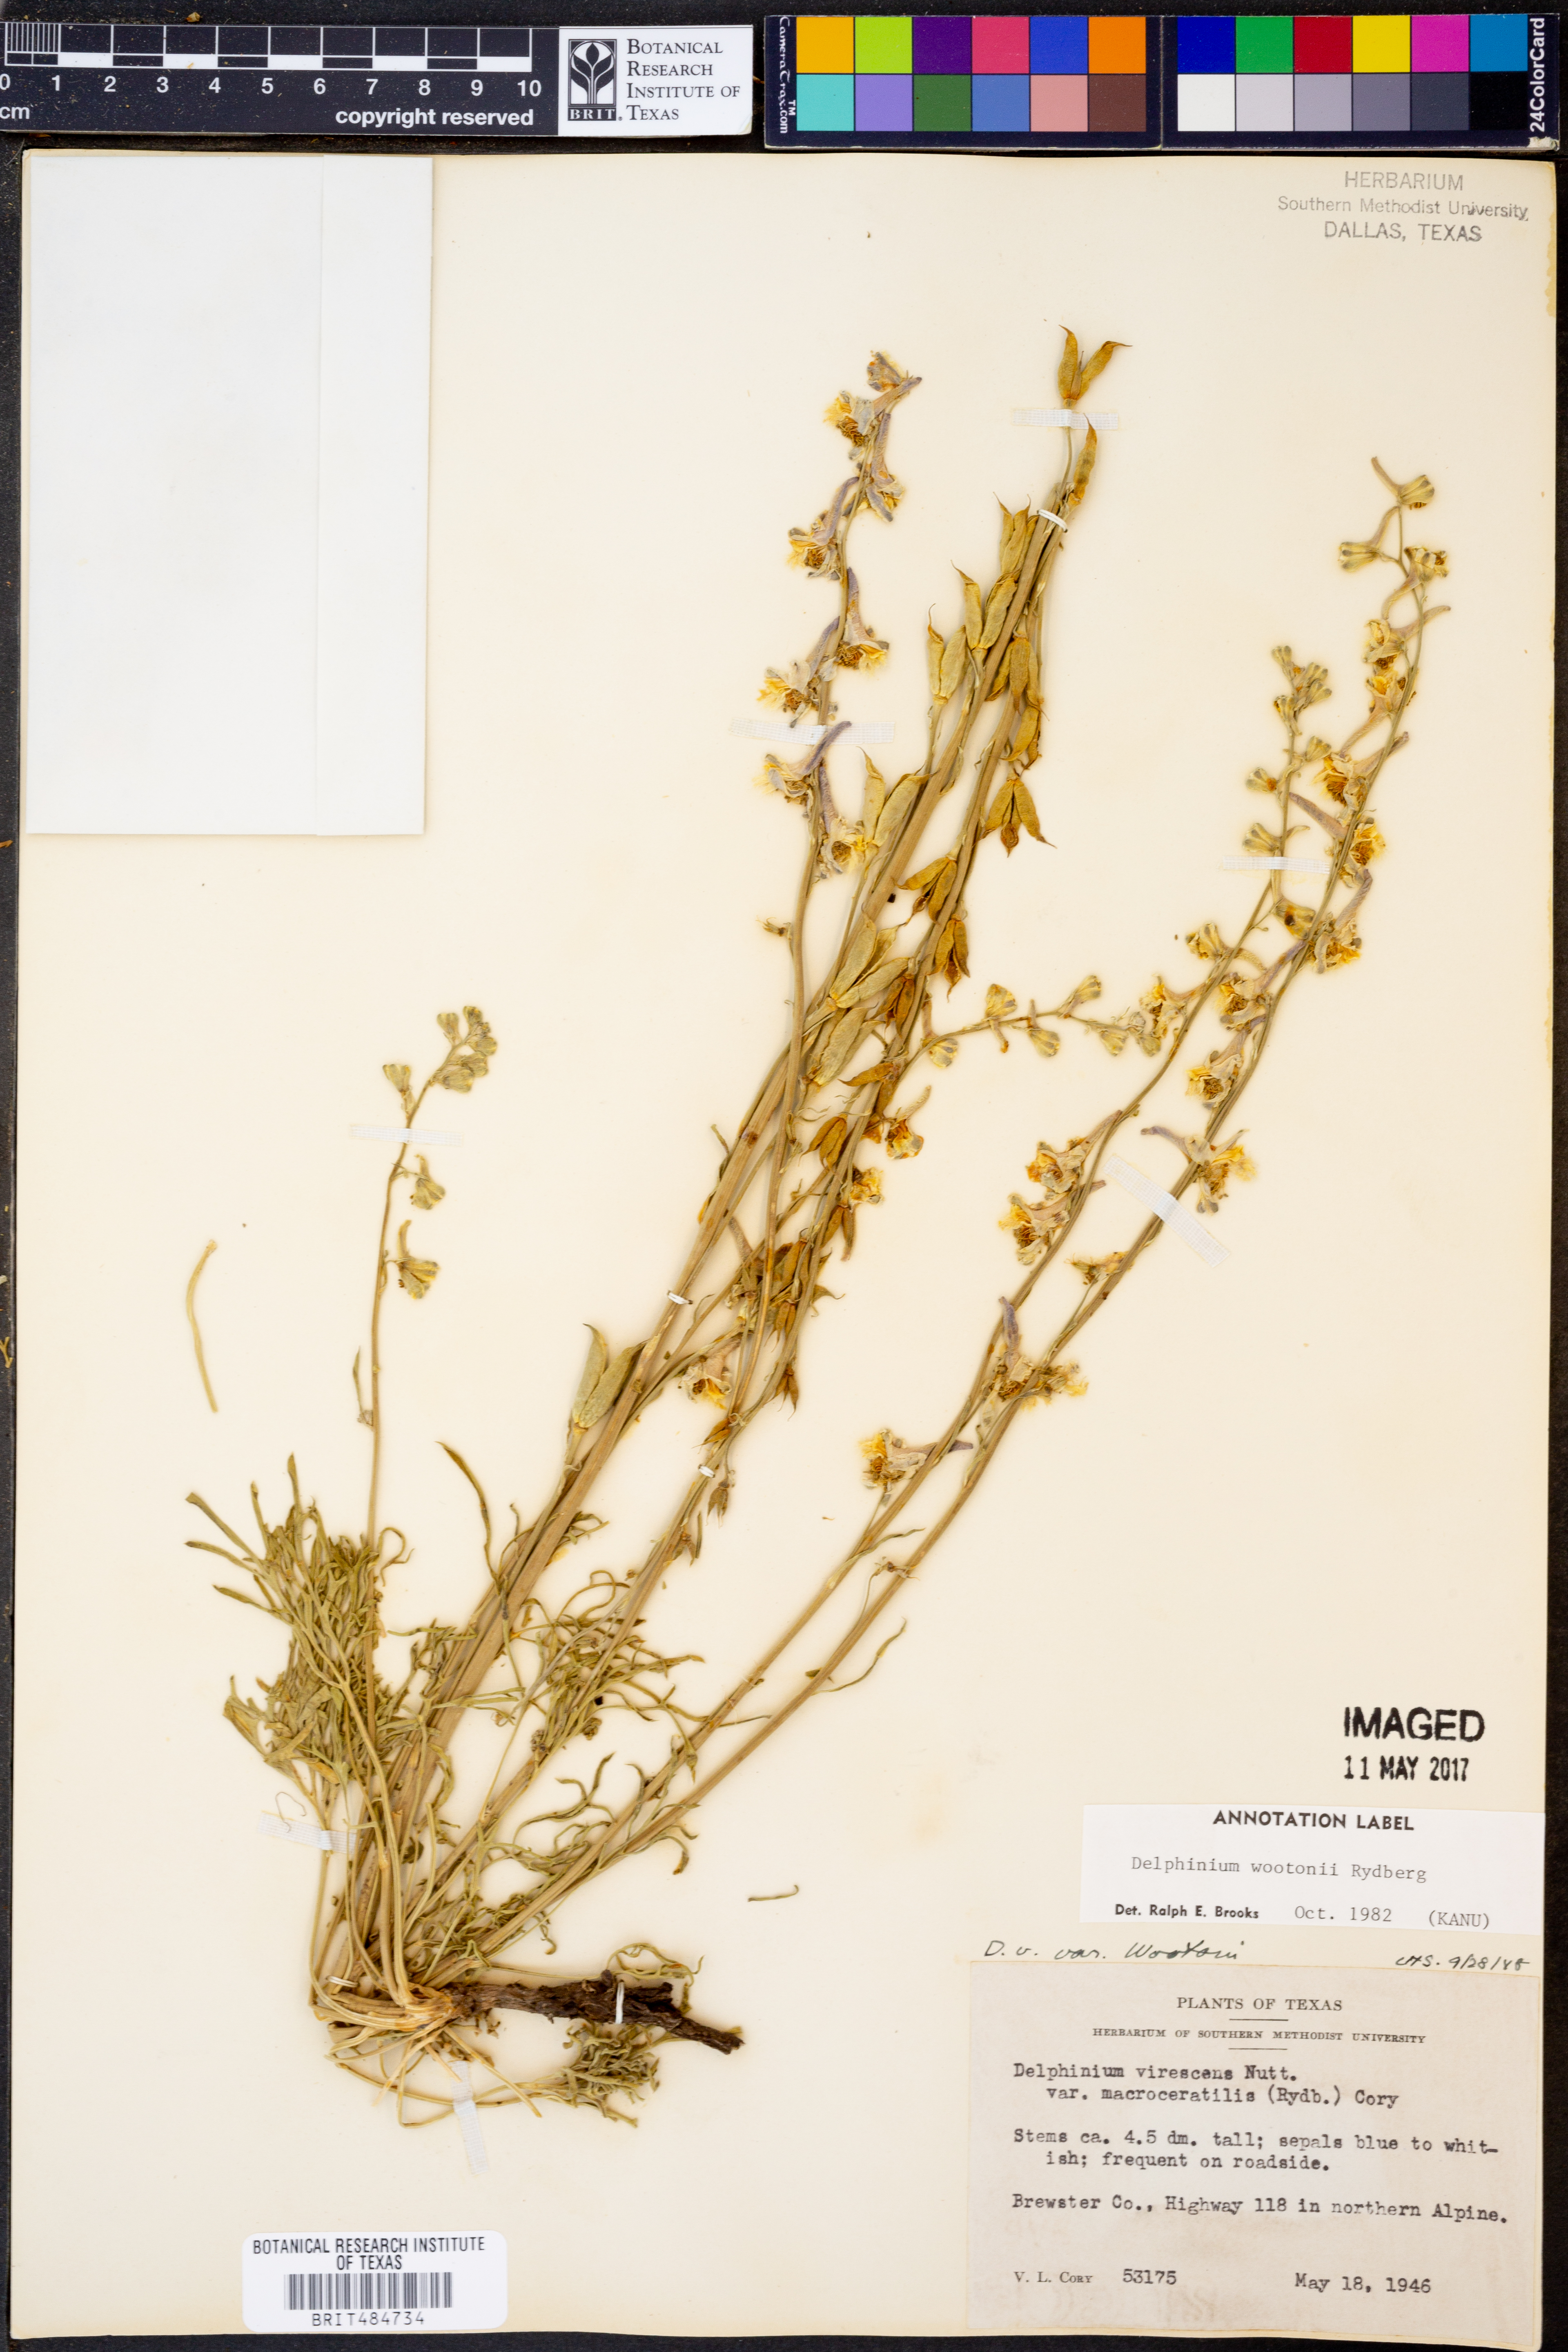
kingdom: Plantae
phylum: Tracheophyta
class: Magnoliopsida
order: Ranunculales
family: Ranunculaceae
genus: Delphinium
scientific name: Delphinium wootonii
